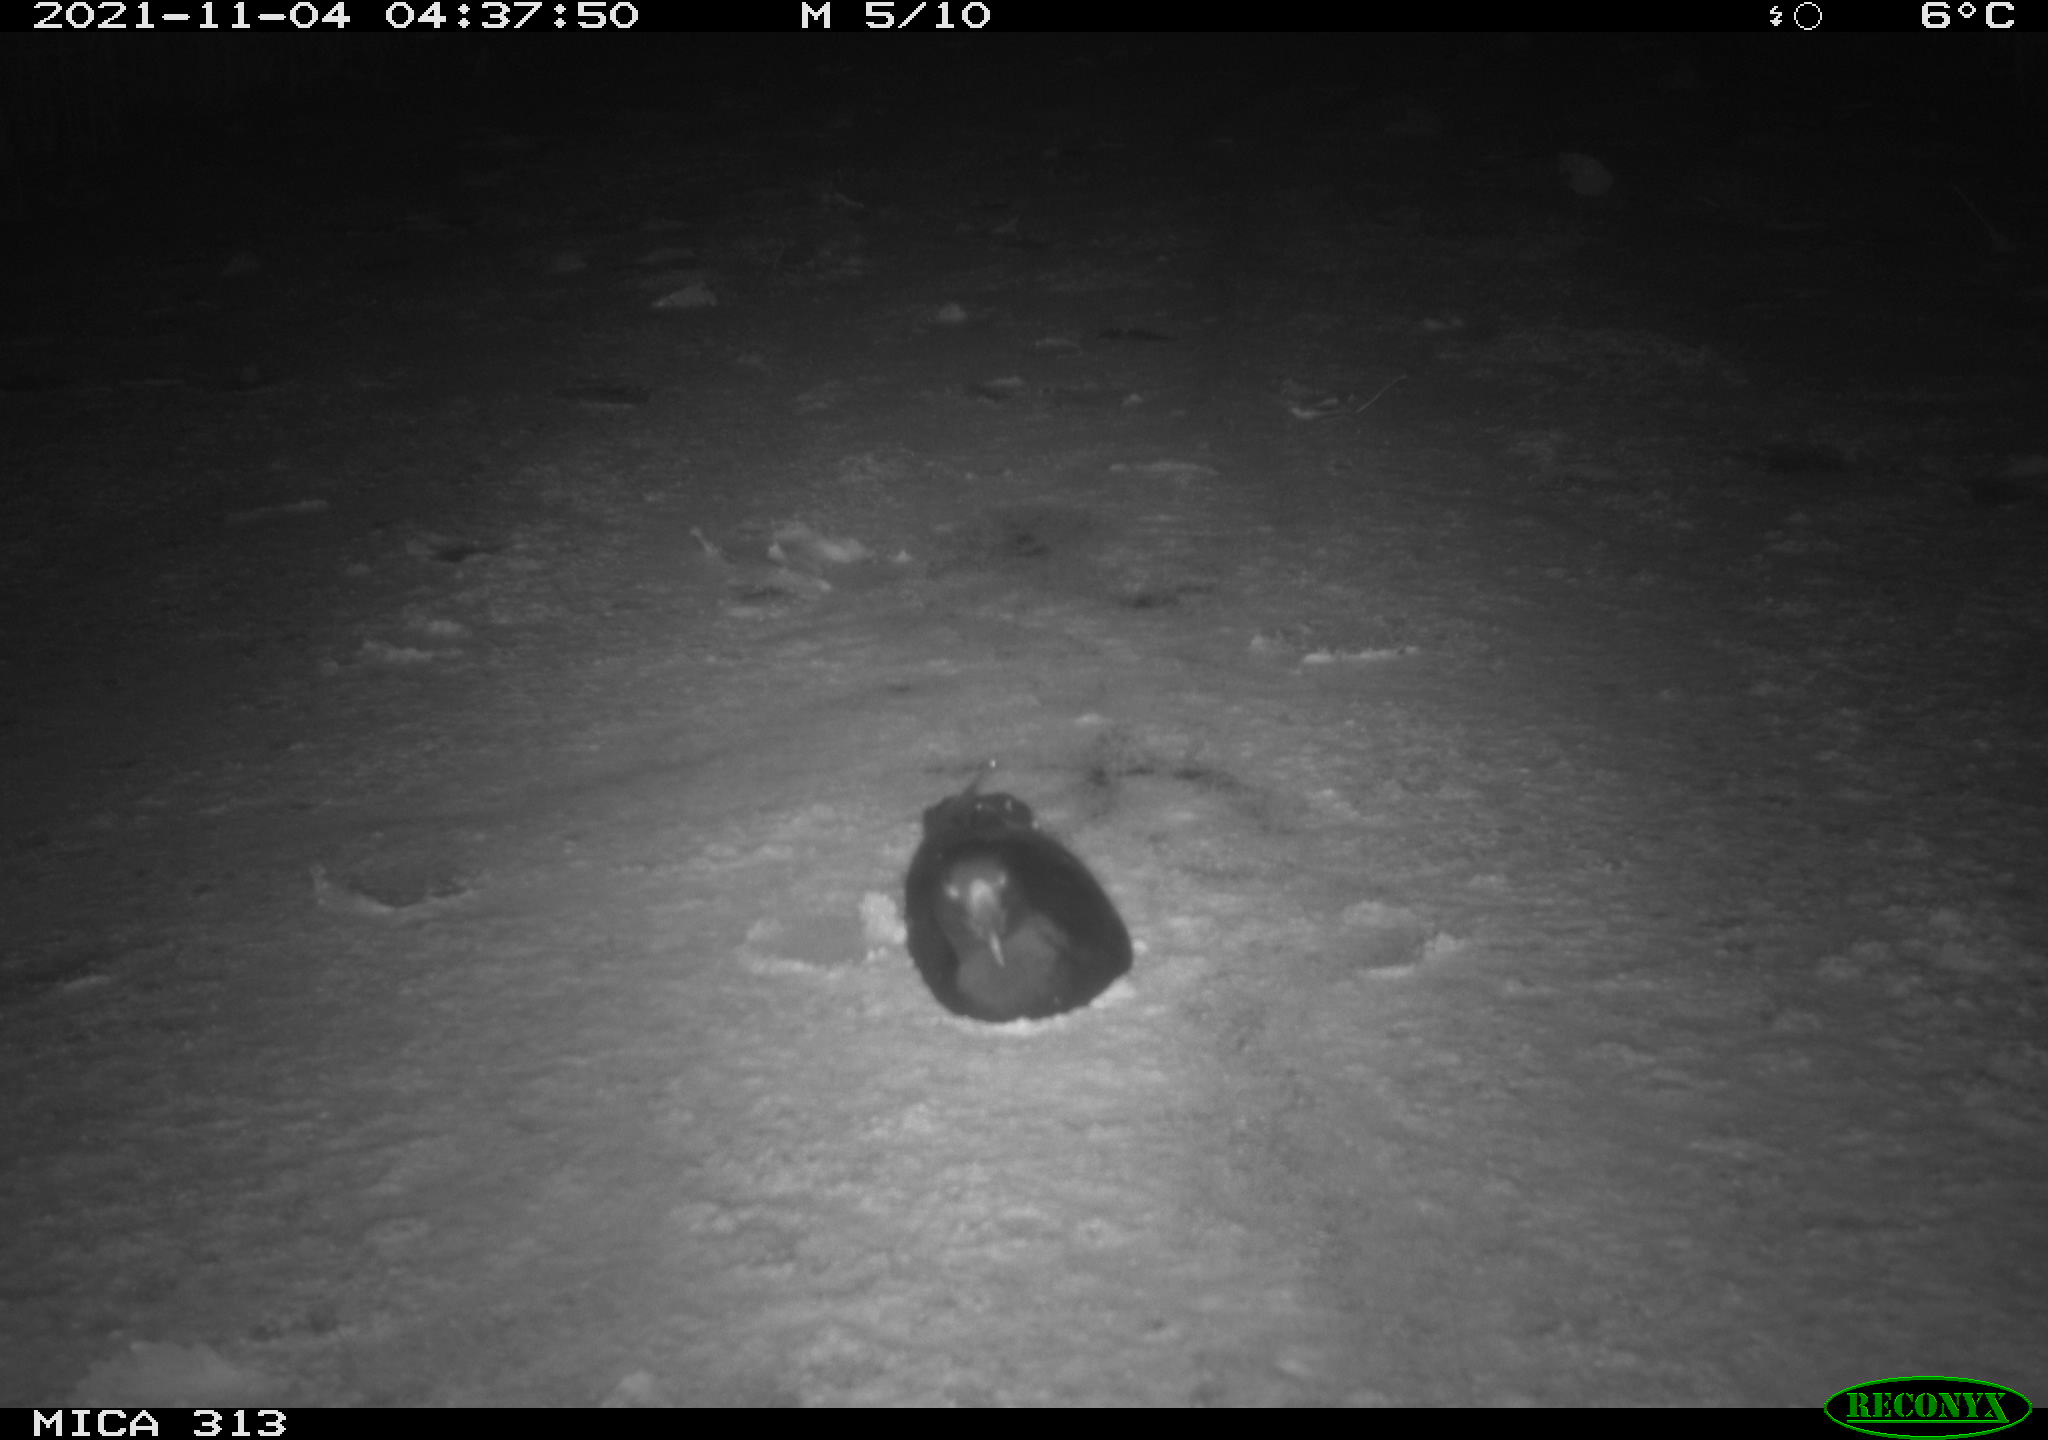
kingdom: Animalia
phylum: Chordata
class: Aves
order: Gruiformes
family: Rallidae
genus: Gallinula
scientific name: Gallinula chloropus
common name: Common moorhen
